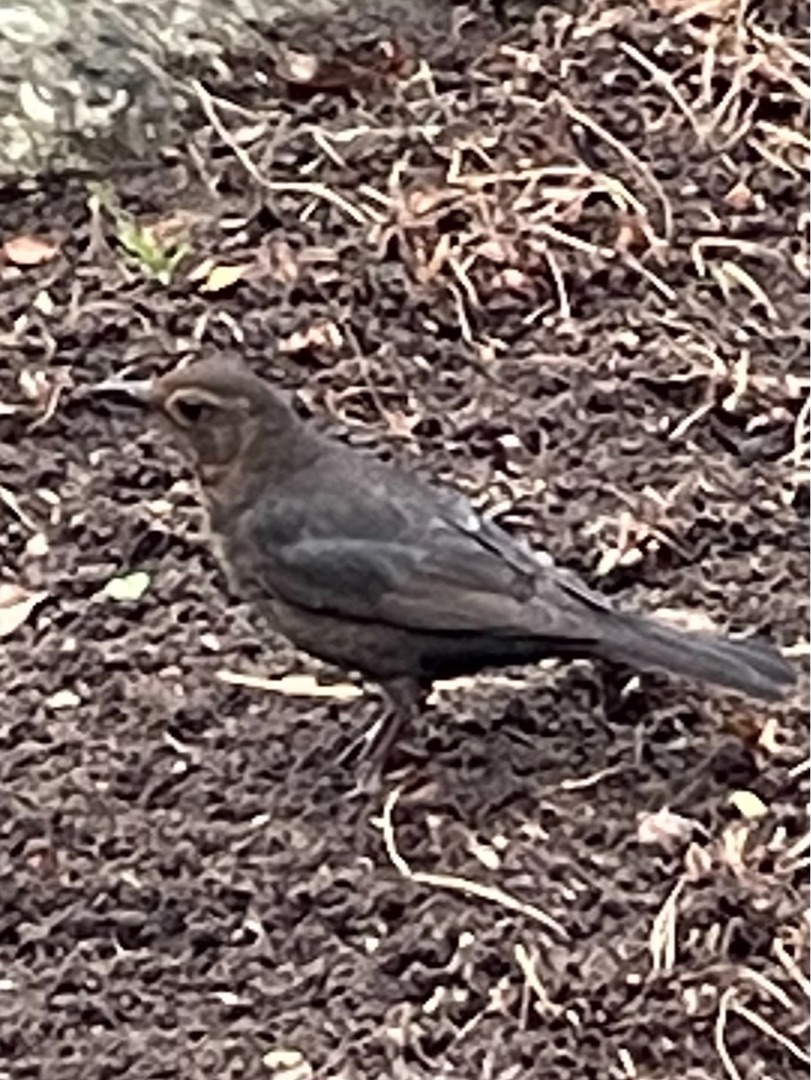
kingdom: Animalia
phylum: Chordata
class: Aves
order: Passeriformes
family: Turdidae
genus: Turdus
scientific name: Turdus merula
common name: Solsort
